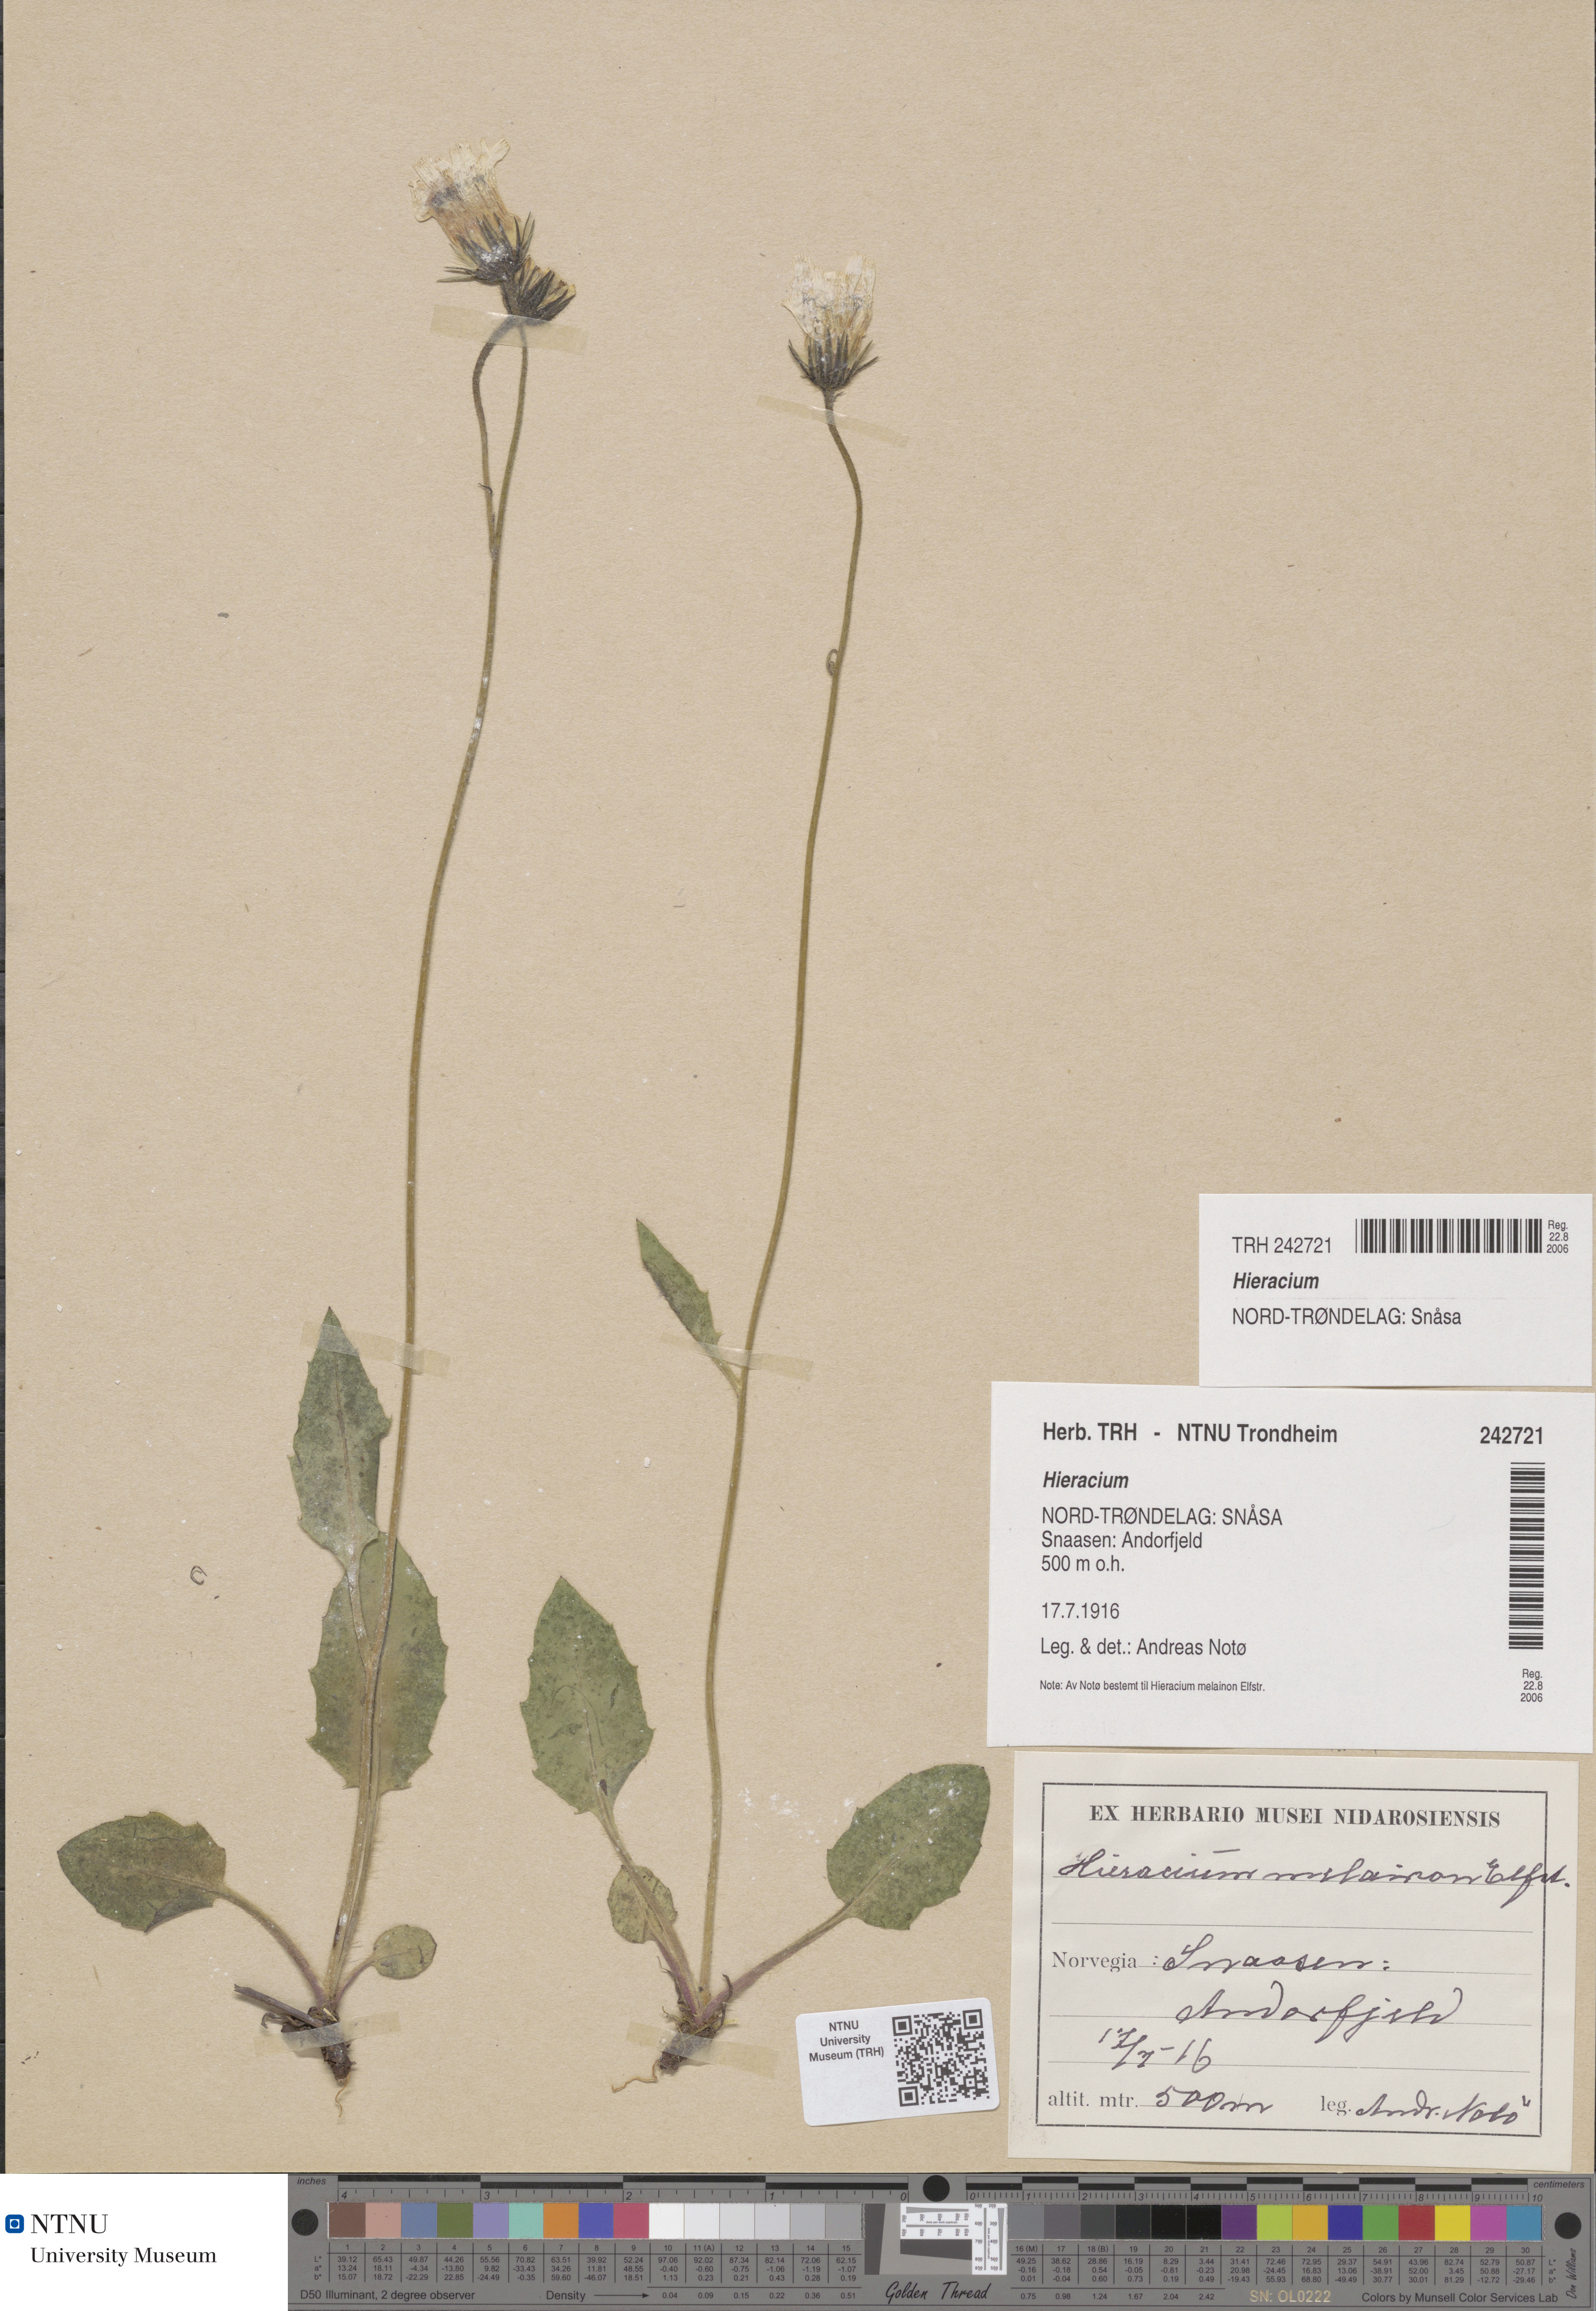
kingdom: Plantae
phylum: Tracheophyta
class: Magnoliopsida
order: Asterales
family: Asteraceae
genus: Hieracium
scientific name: Hieracium
